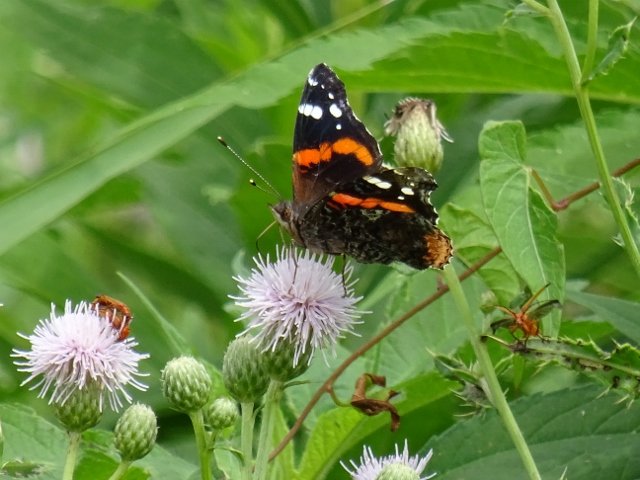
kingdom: Animalia
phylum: Arthropoda
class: Insecta
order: Lepidoptera
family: Nymphalidae
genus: Vanessa
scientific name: Vanessa atalanta
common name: Red Admiral
